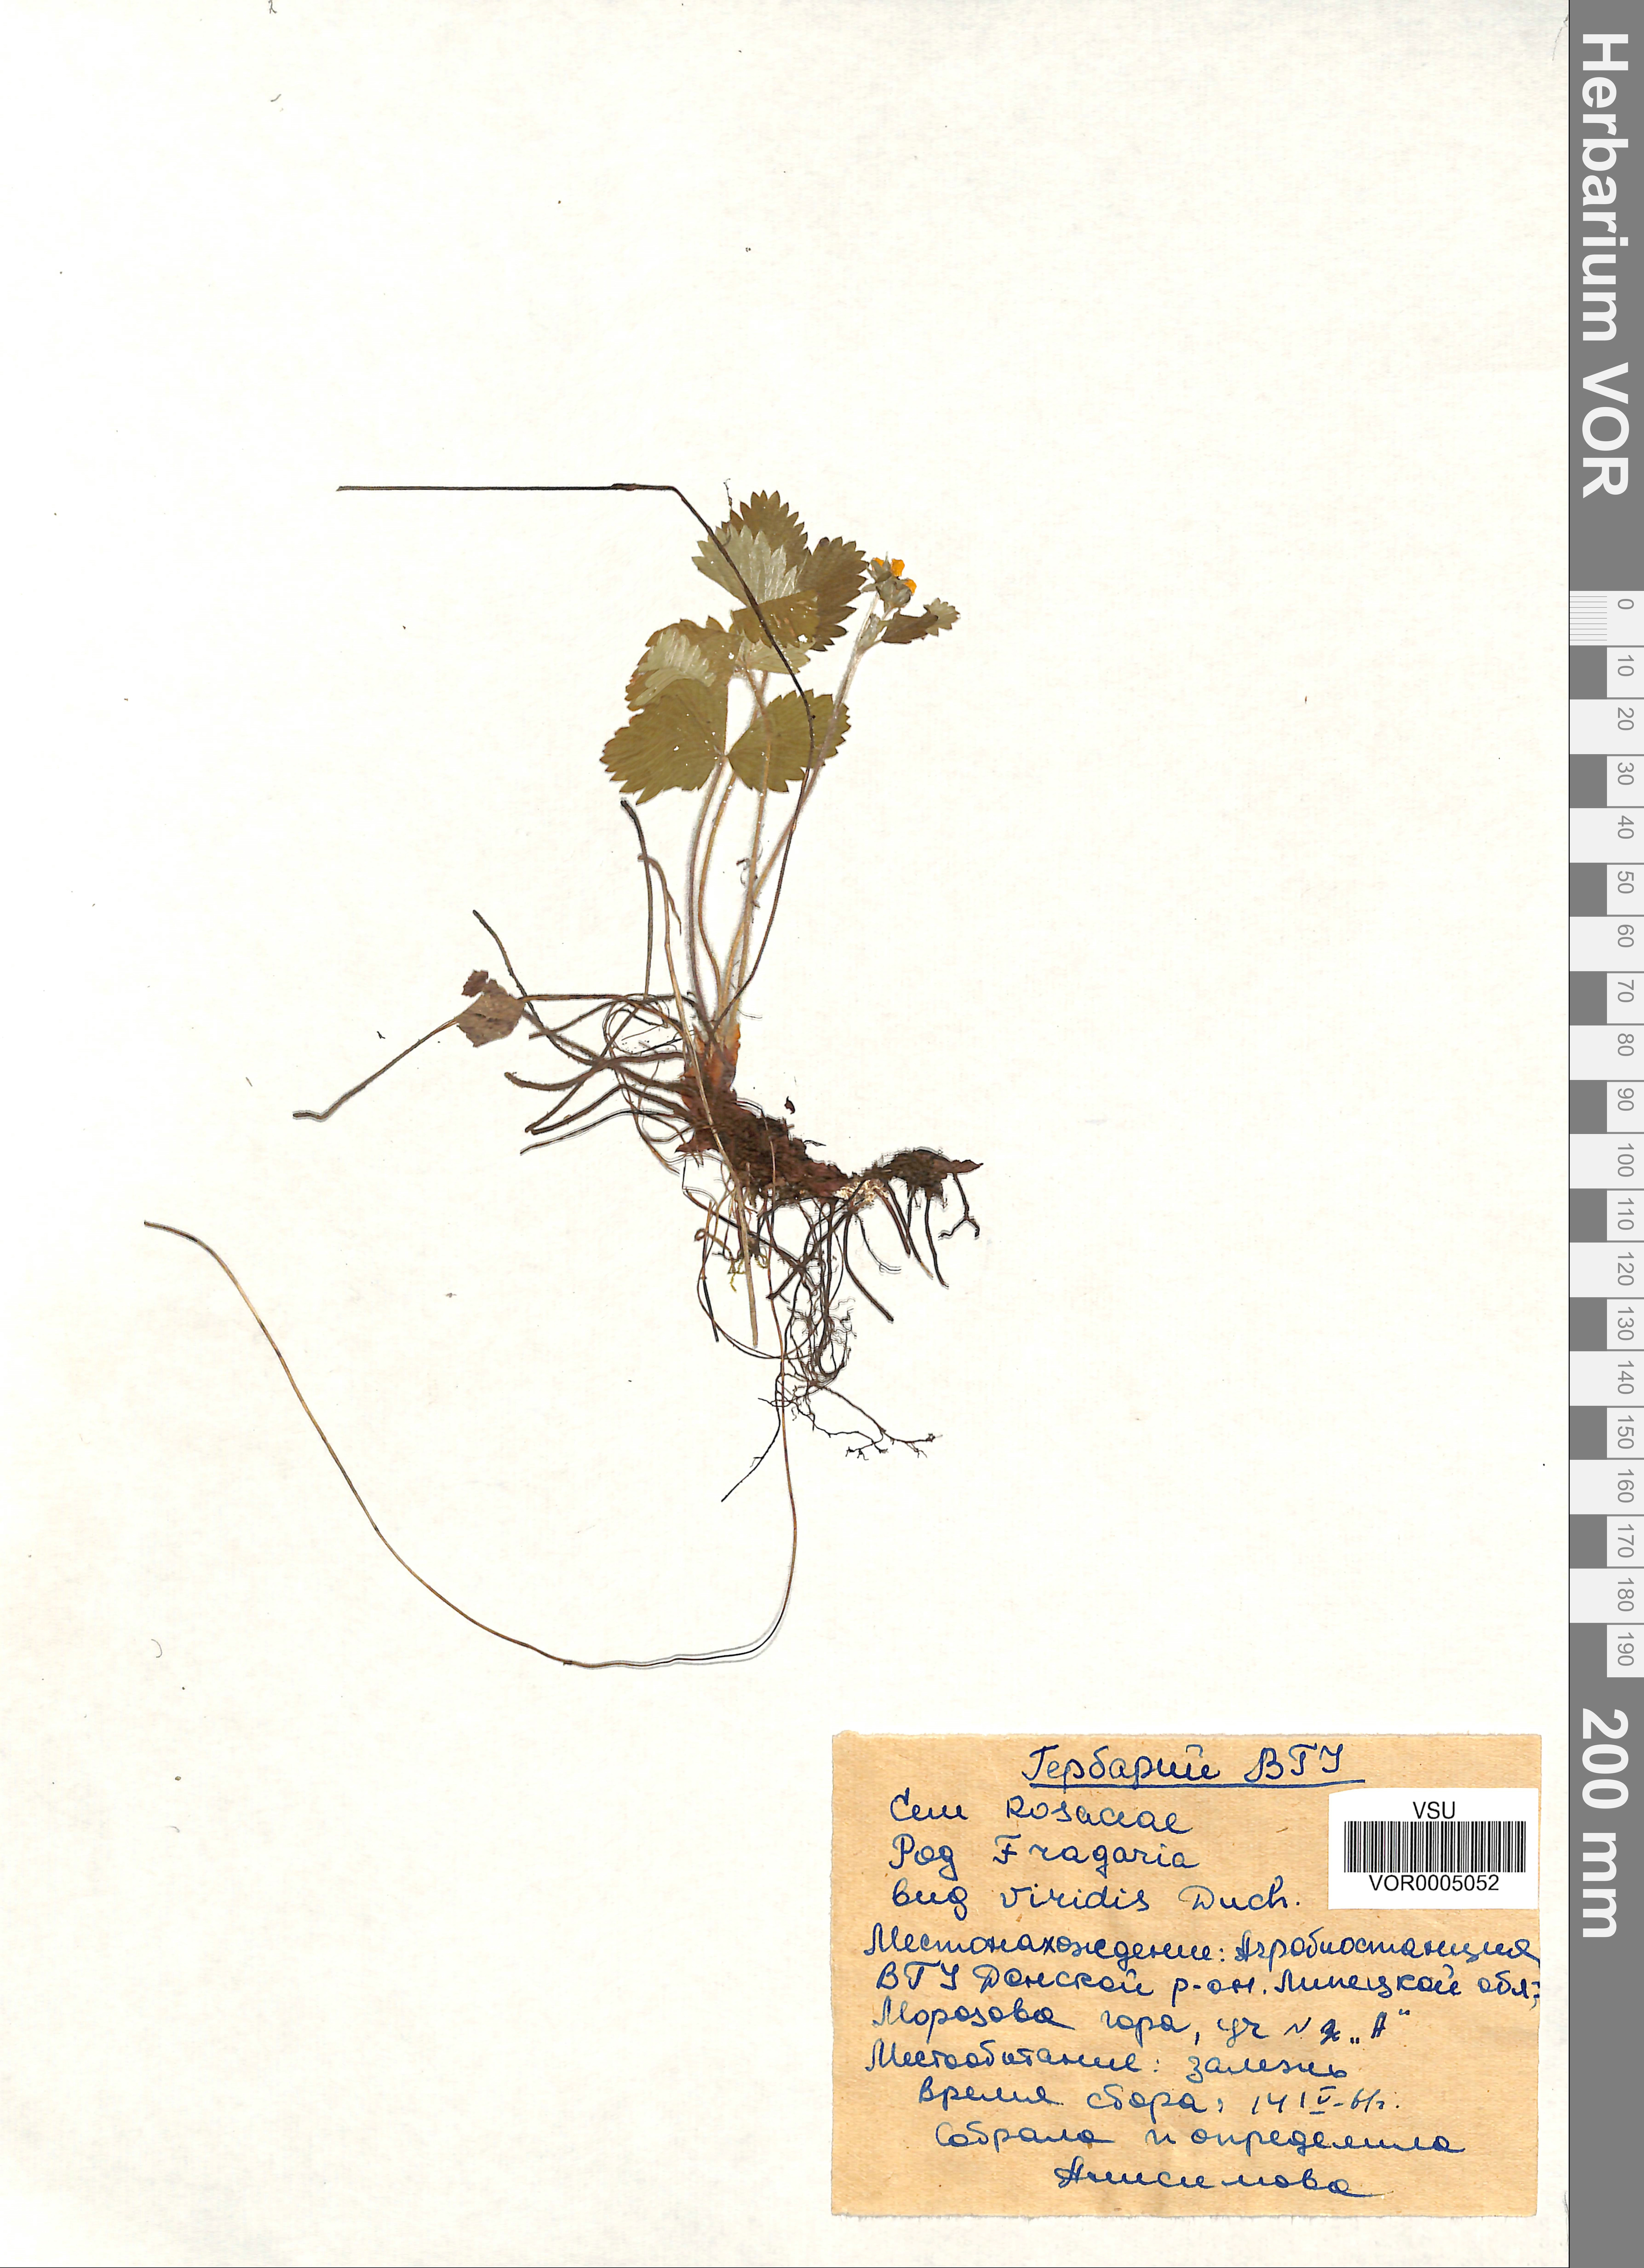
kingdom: Plantae
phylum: Tracheophyta
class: Magnoliopsida
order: Rosales
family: Rosaceae
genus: Fragaria
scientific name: Fragaria viridis
